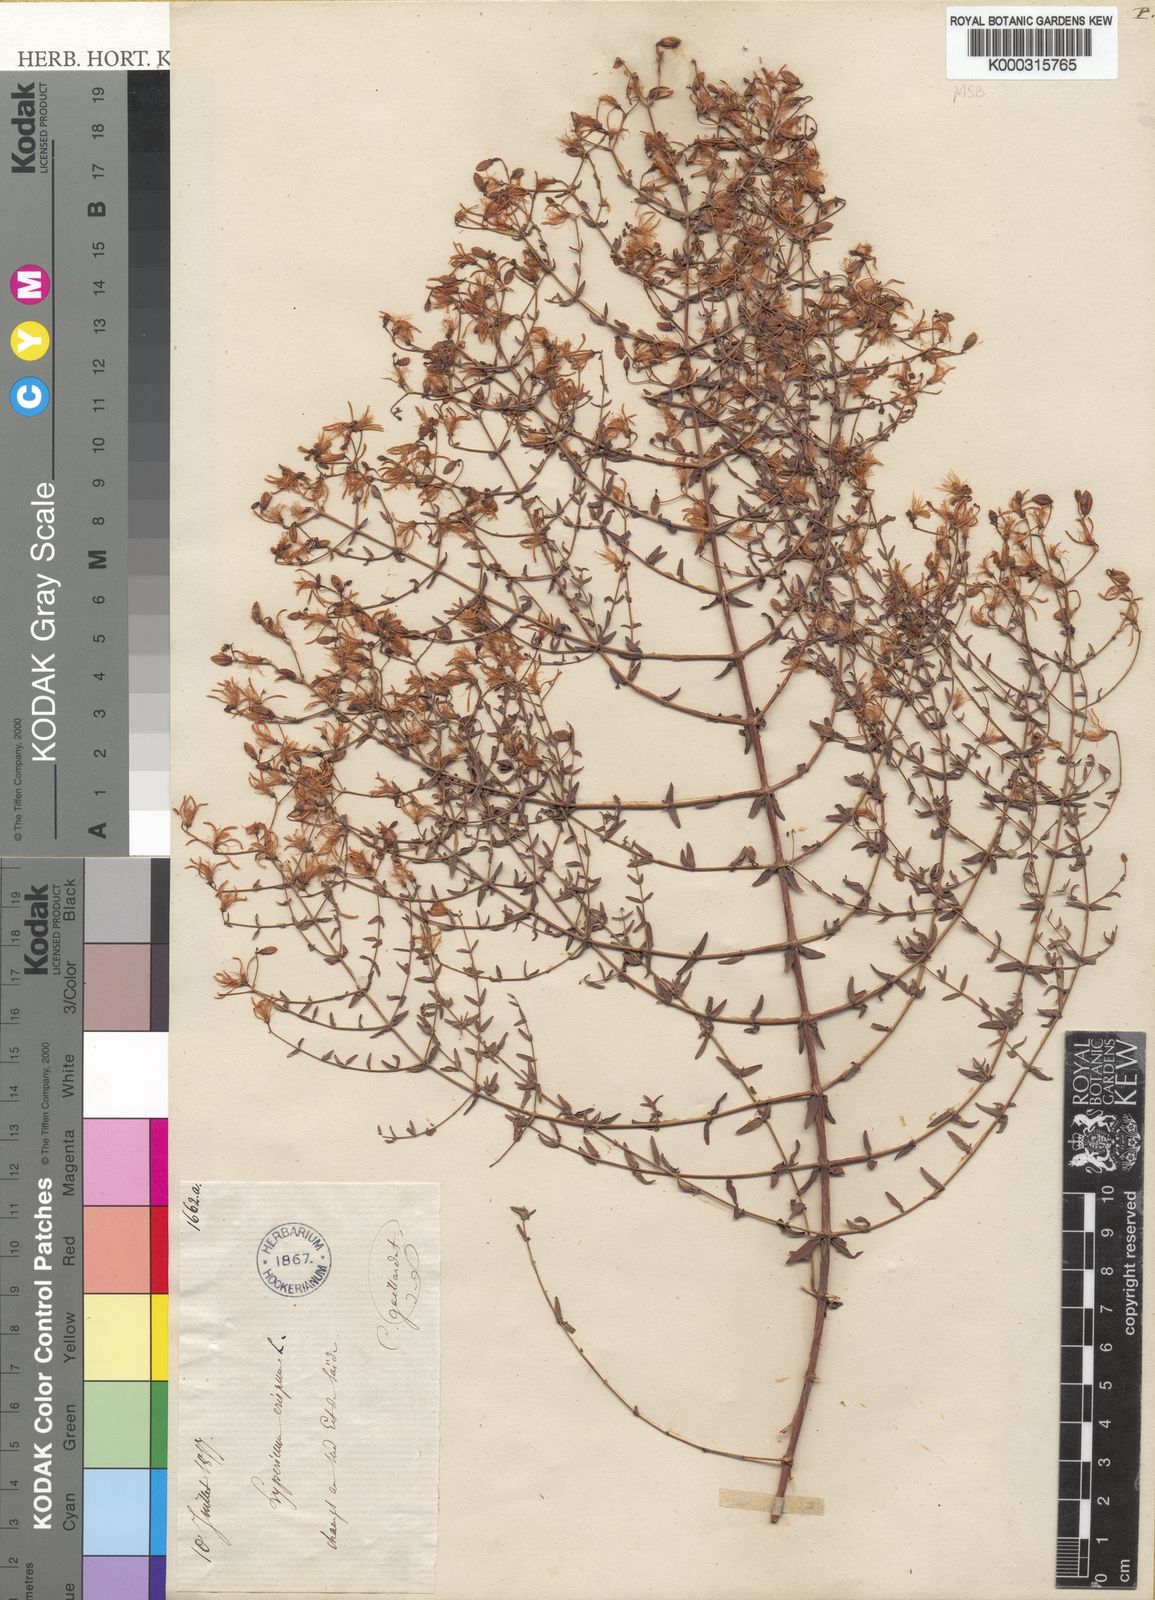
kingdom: Plantae
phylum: Tracheophyta
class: Magnoliopsida
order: Malpighiales
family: Hypericaceae
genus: Hypericum
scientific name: Hypericum triquetrifolium
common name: Tangled hypericum
